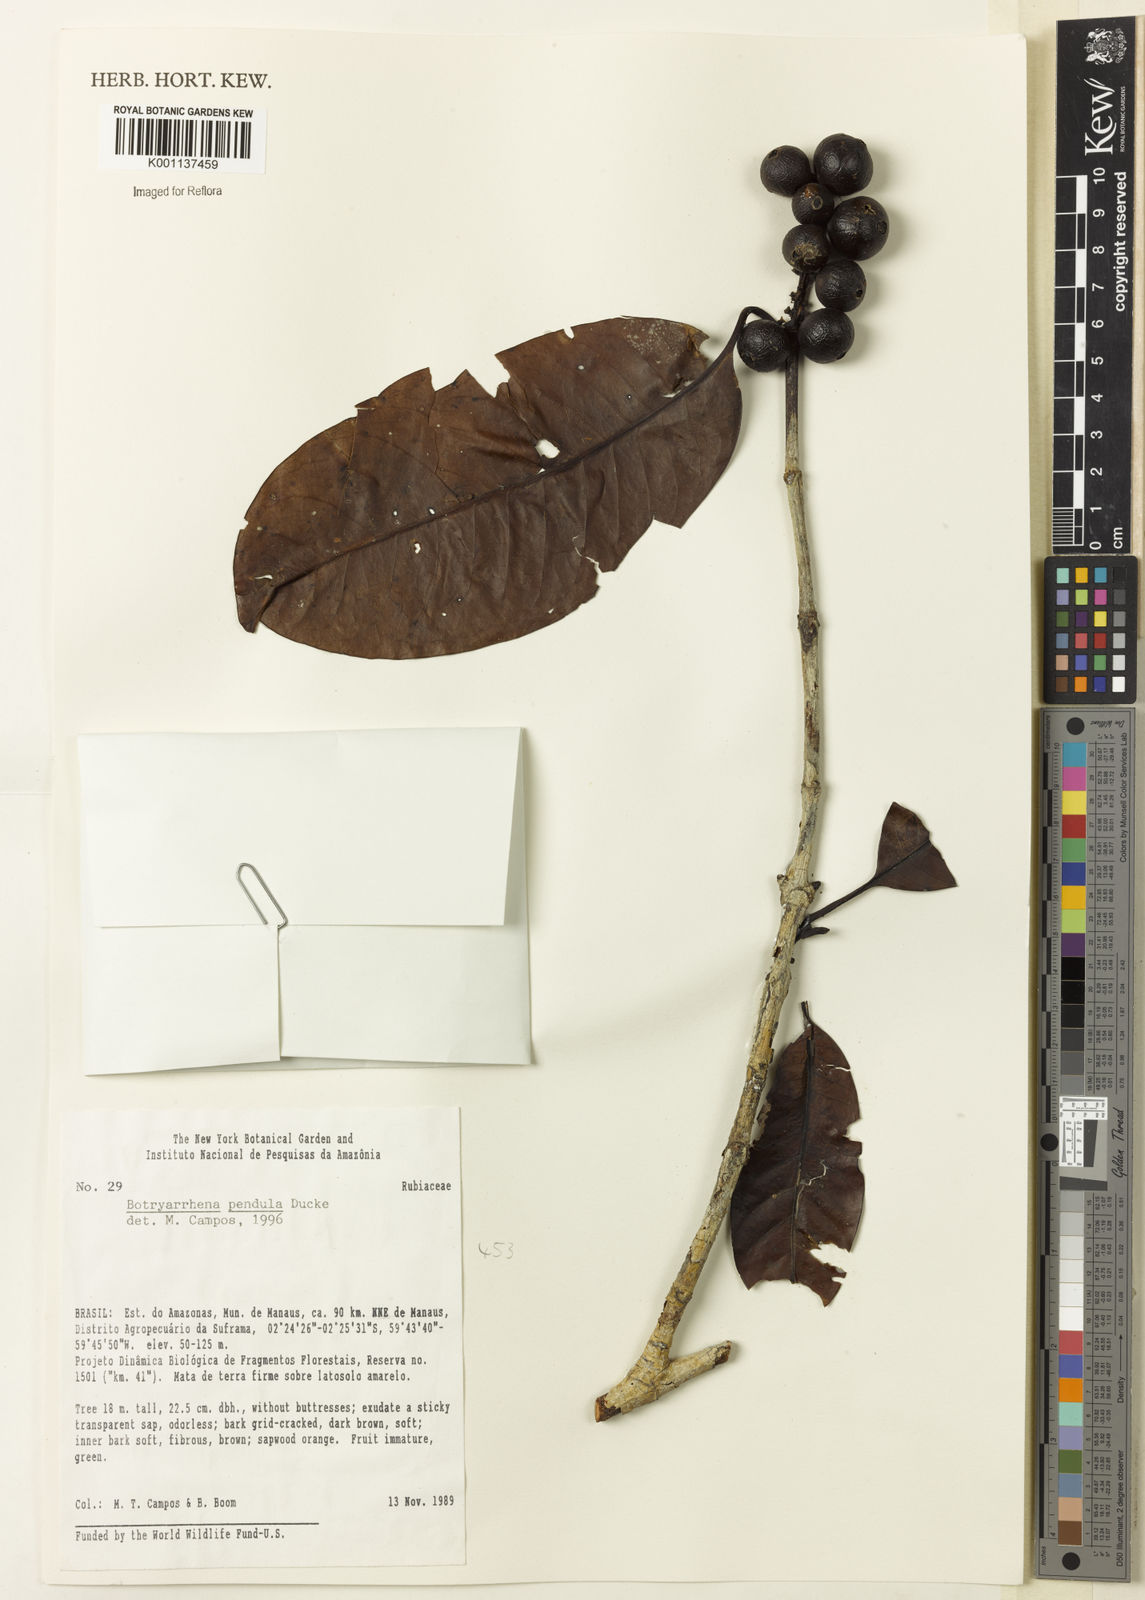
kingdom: Plantae
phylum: Tracheophyta
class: Magnoliopsida
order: Gentianales
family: Rubiaceae
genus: Botryarrhena
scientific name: Botryarrhena pendula
